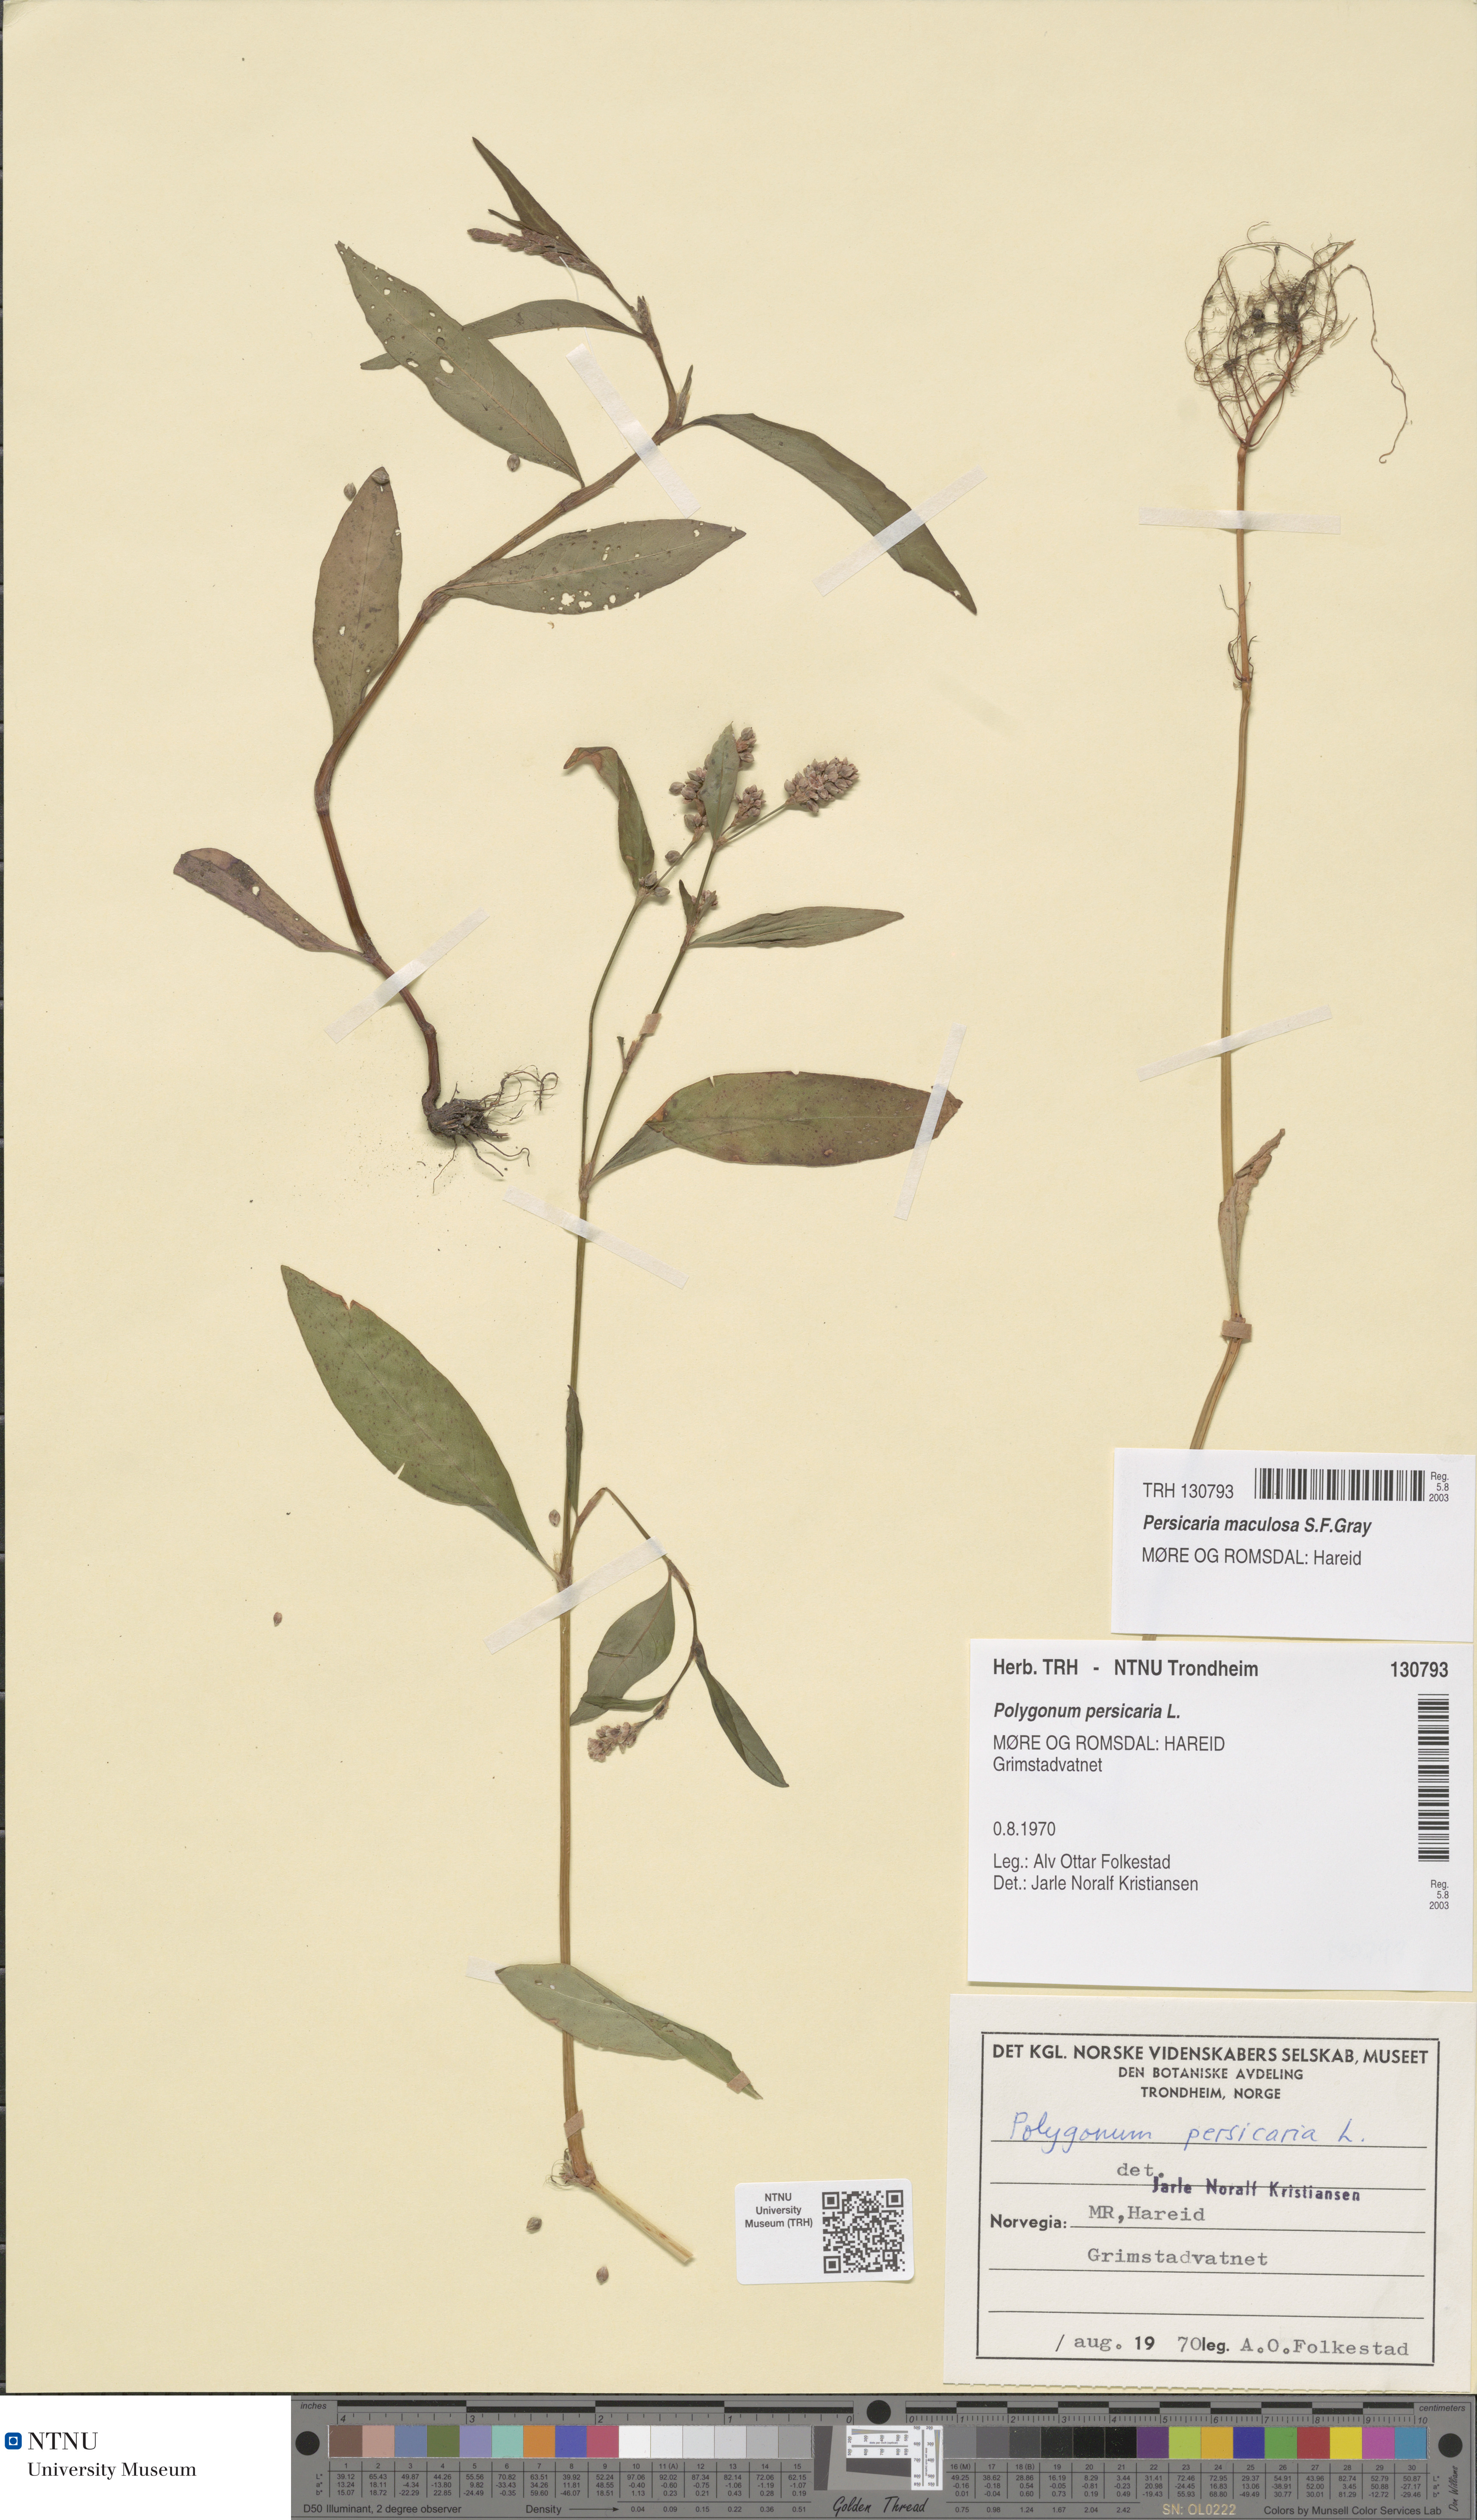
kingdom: Plantae
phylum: Tracheophyta
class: Magnoliopsida
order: Caryophyllales
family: Polygonaceae
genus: Persicaria
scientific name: Persicaria maculosa
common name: Redshank
